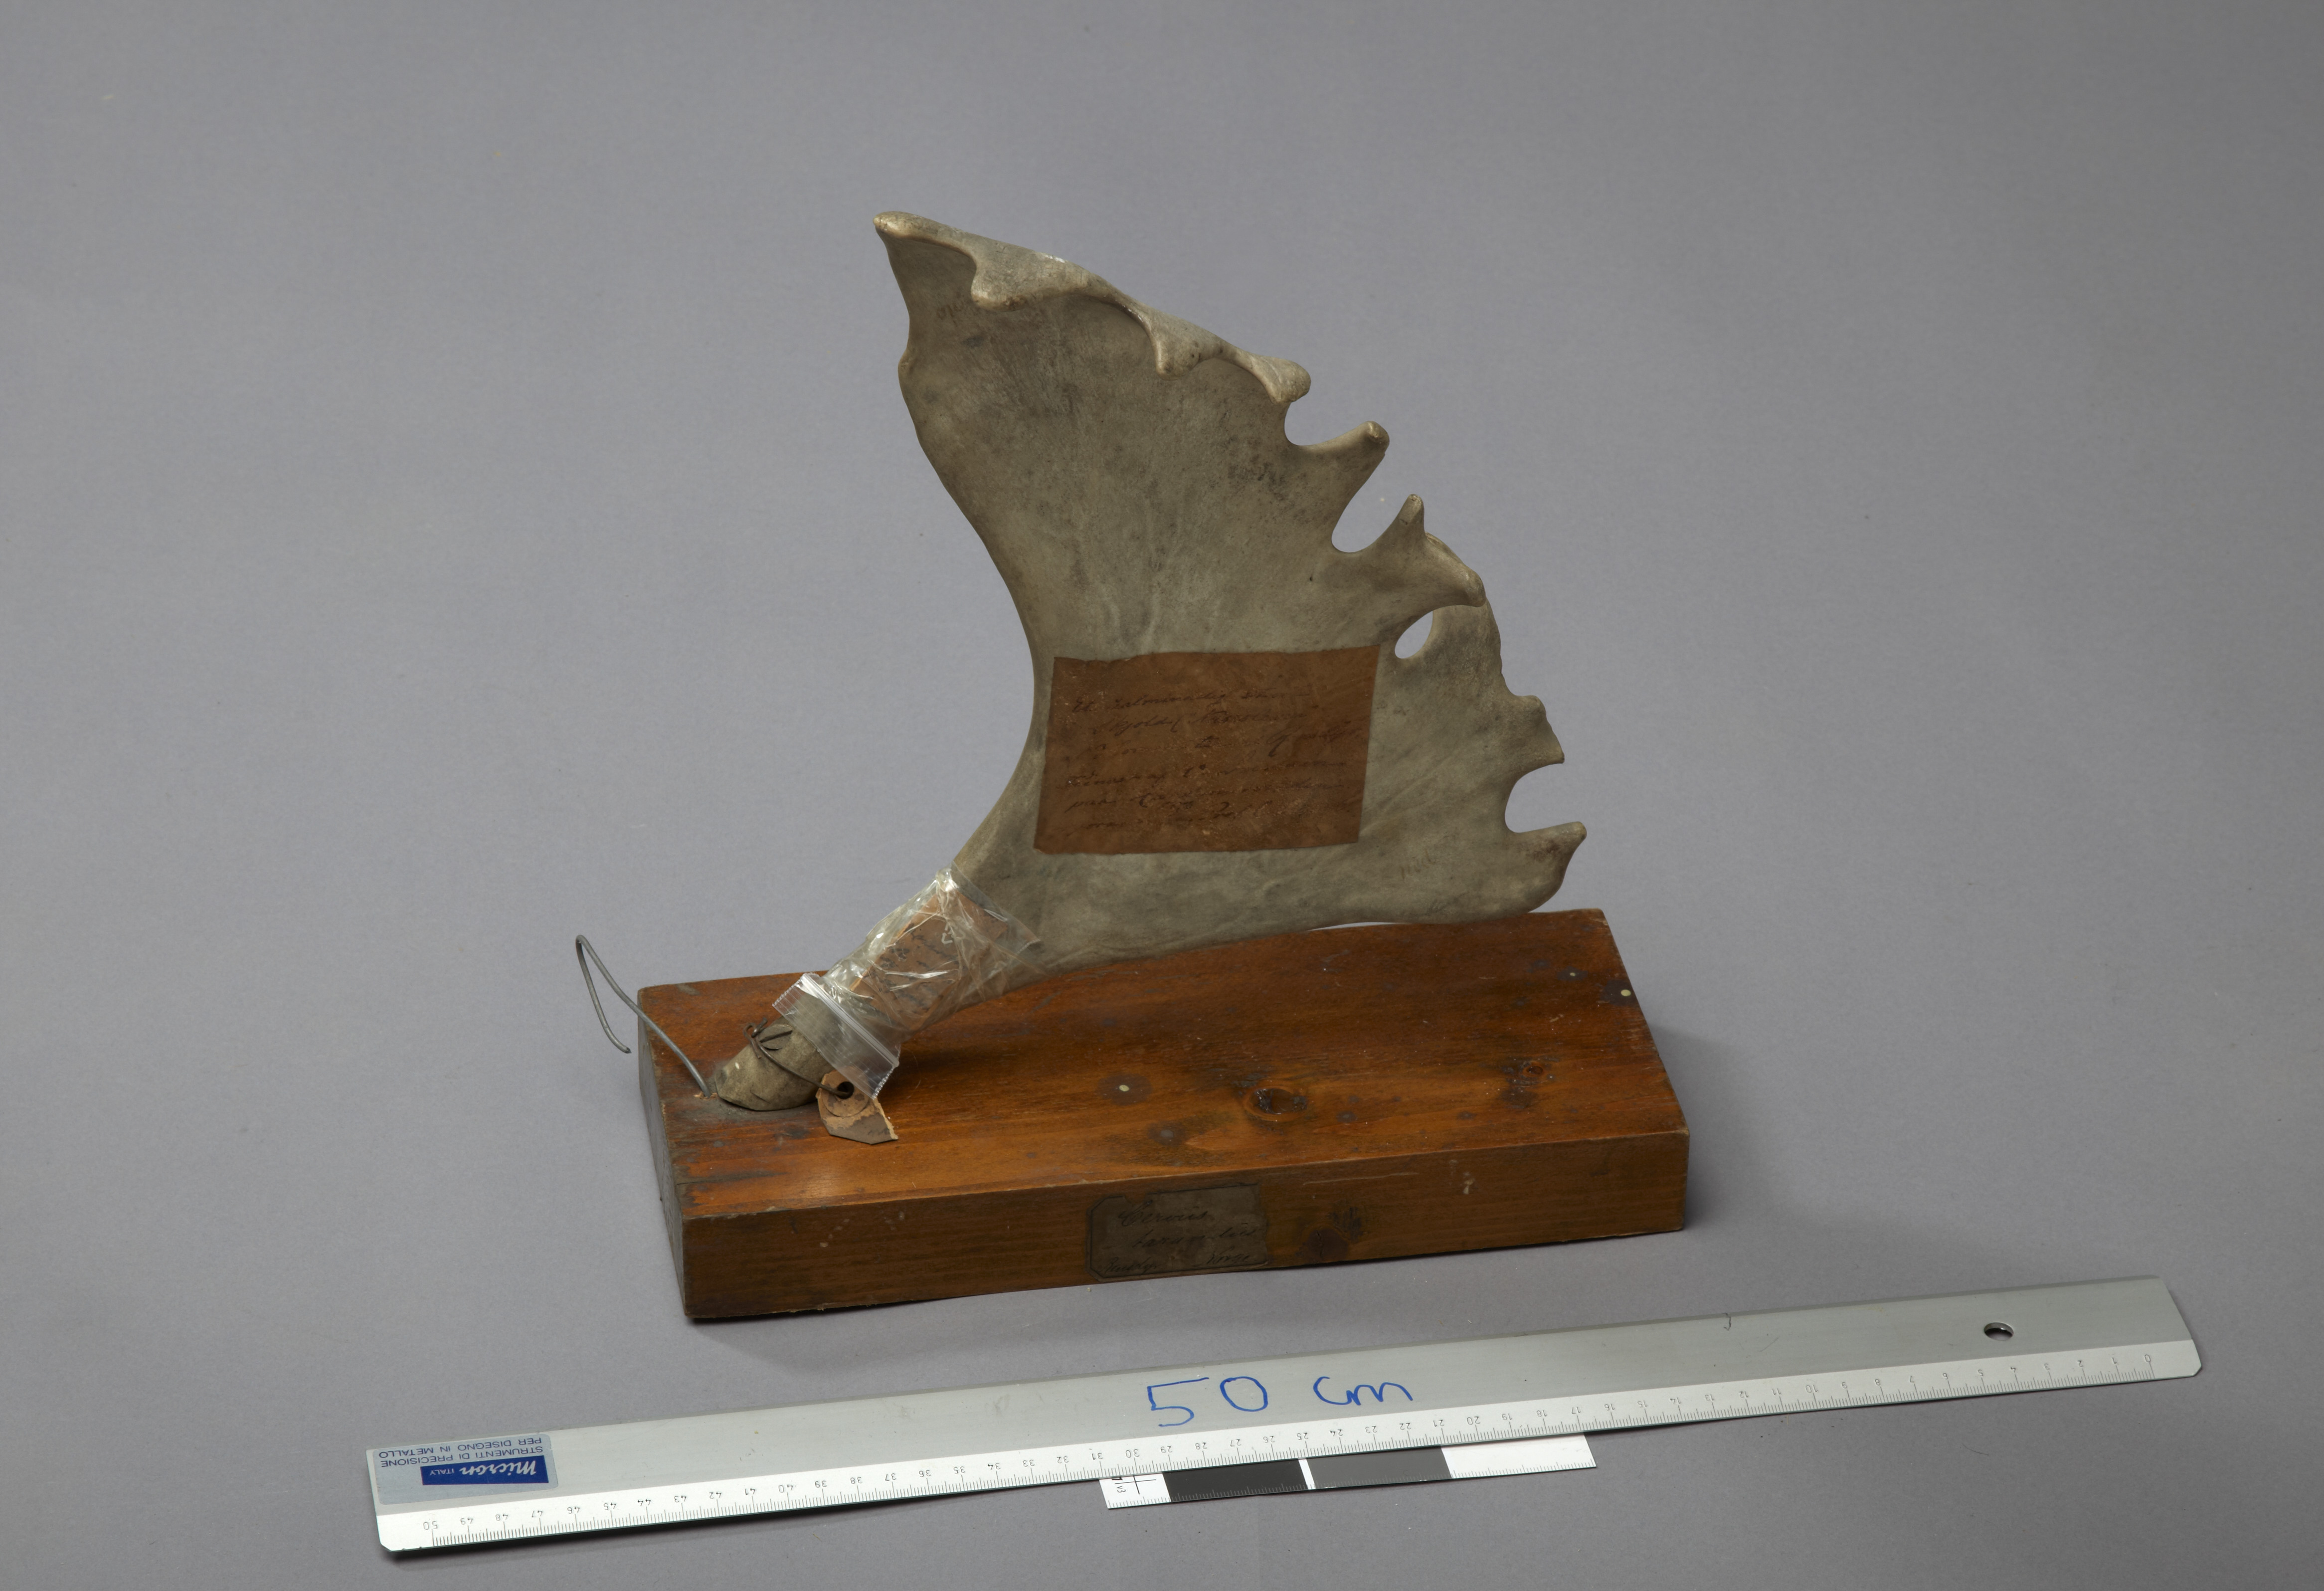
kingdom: Animalia
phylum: Chordata
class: Mammalia
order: Artiodactyla
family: Cervidae
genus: Rangifer
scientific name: Rangifer tarandus
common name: Reindeer
